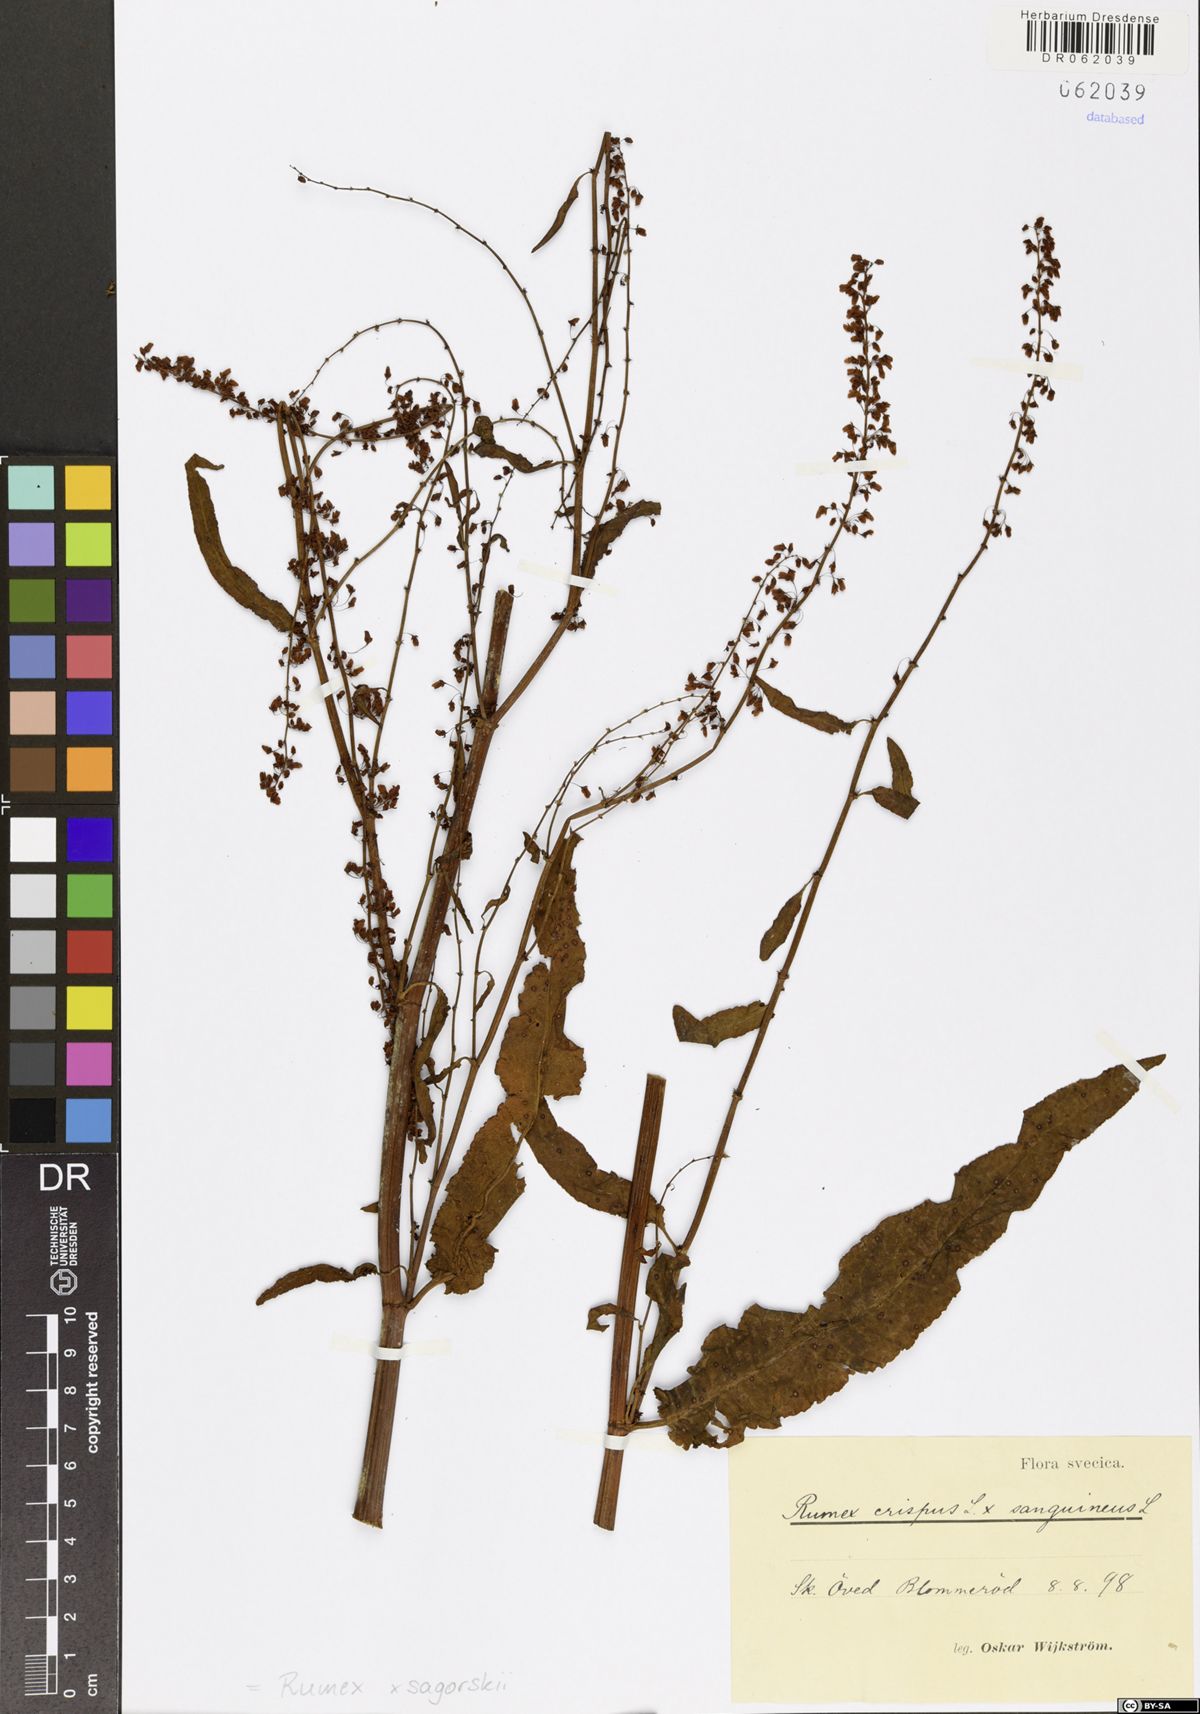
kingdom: Plantae
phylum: Tracheophyta
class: Magnoliopsida
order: Caryophyllales
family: Polygonaceae
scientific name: Polygonaceae
